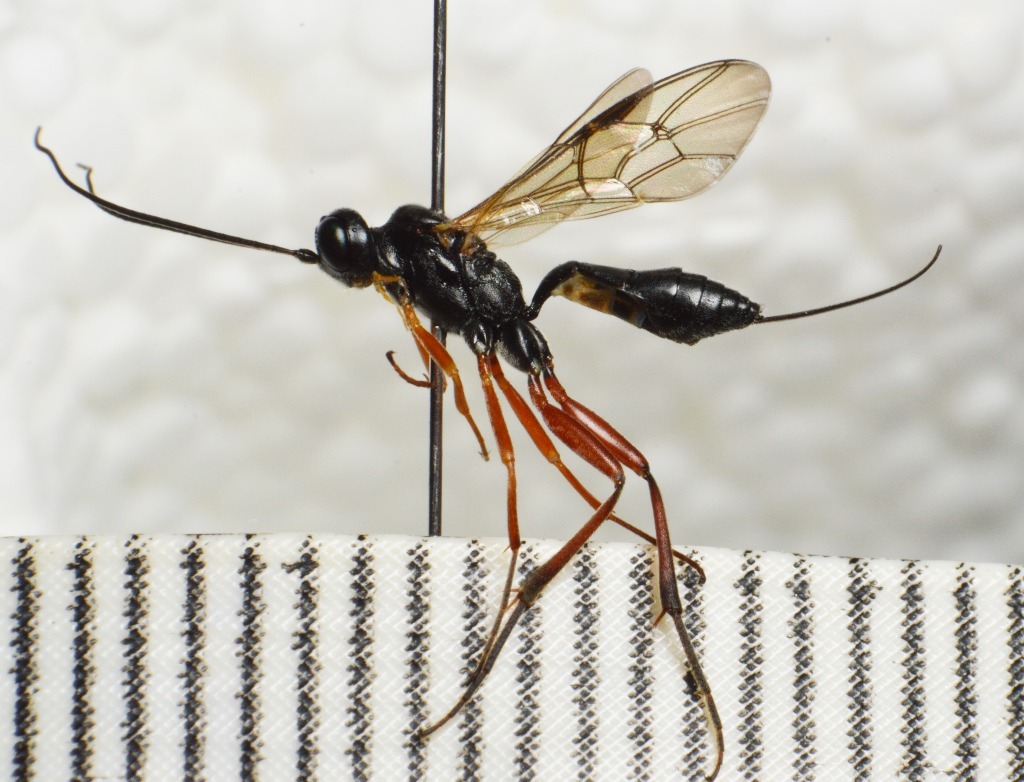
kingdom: Animalia
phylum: Arthropoda
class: Insecta
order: Hymenoptera
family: Ichneumonidae
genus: Rhimphoctona
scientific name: Rhimphoctona megacephalus
